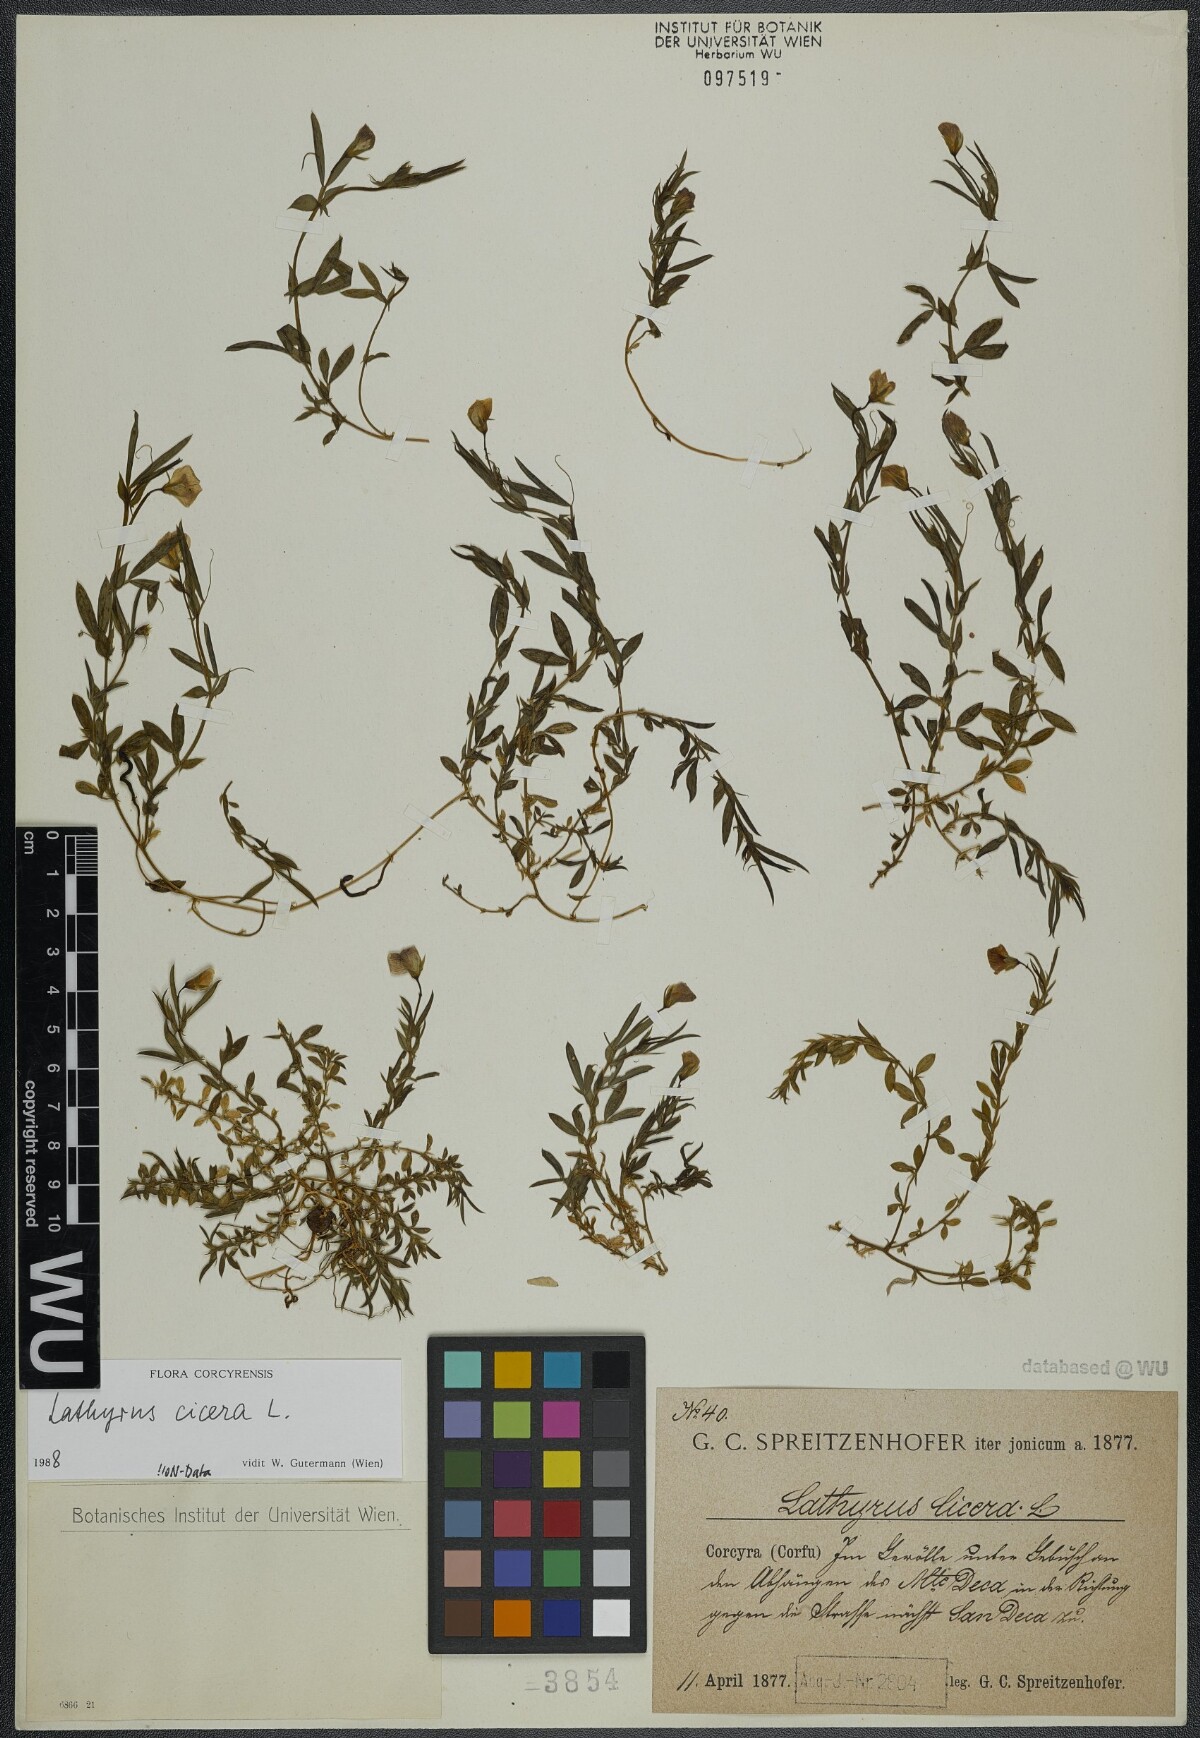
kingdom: Plantae
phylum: Tracheophyta
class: Magnoliopsida
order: Fabales
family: Fabaceae
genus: Lathyrus
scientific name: Lathyrus cicera
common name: Red vetchling
